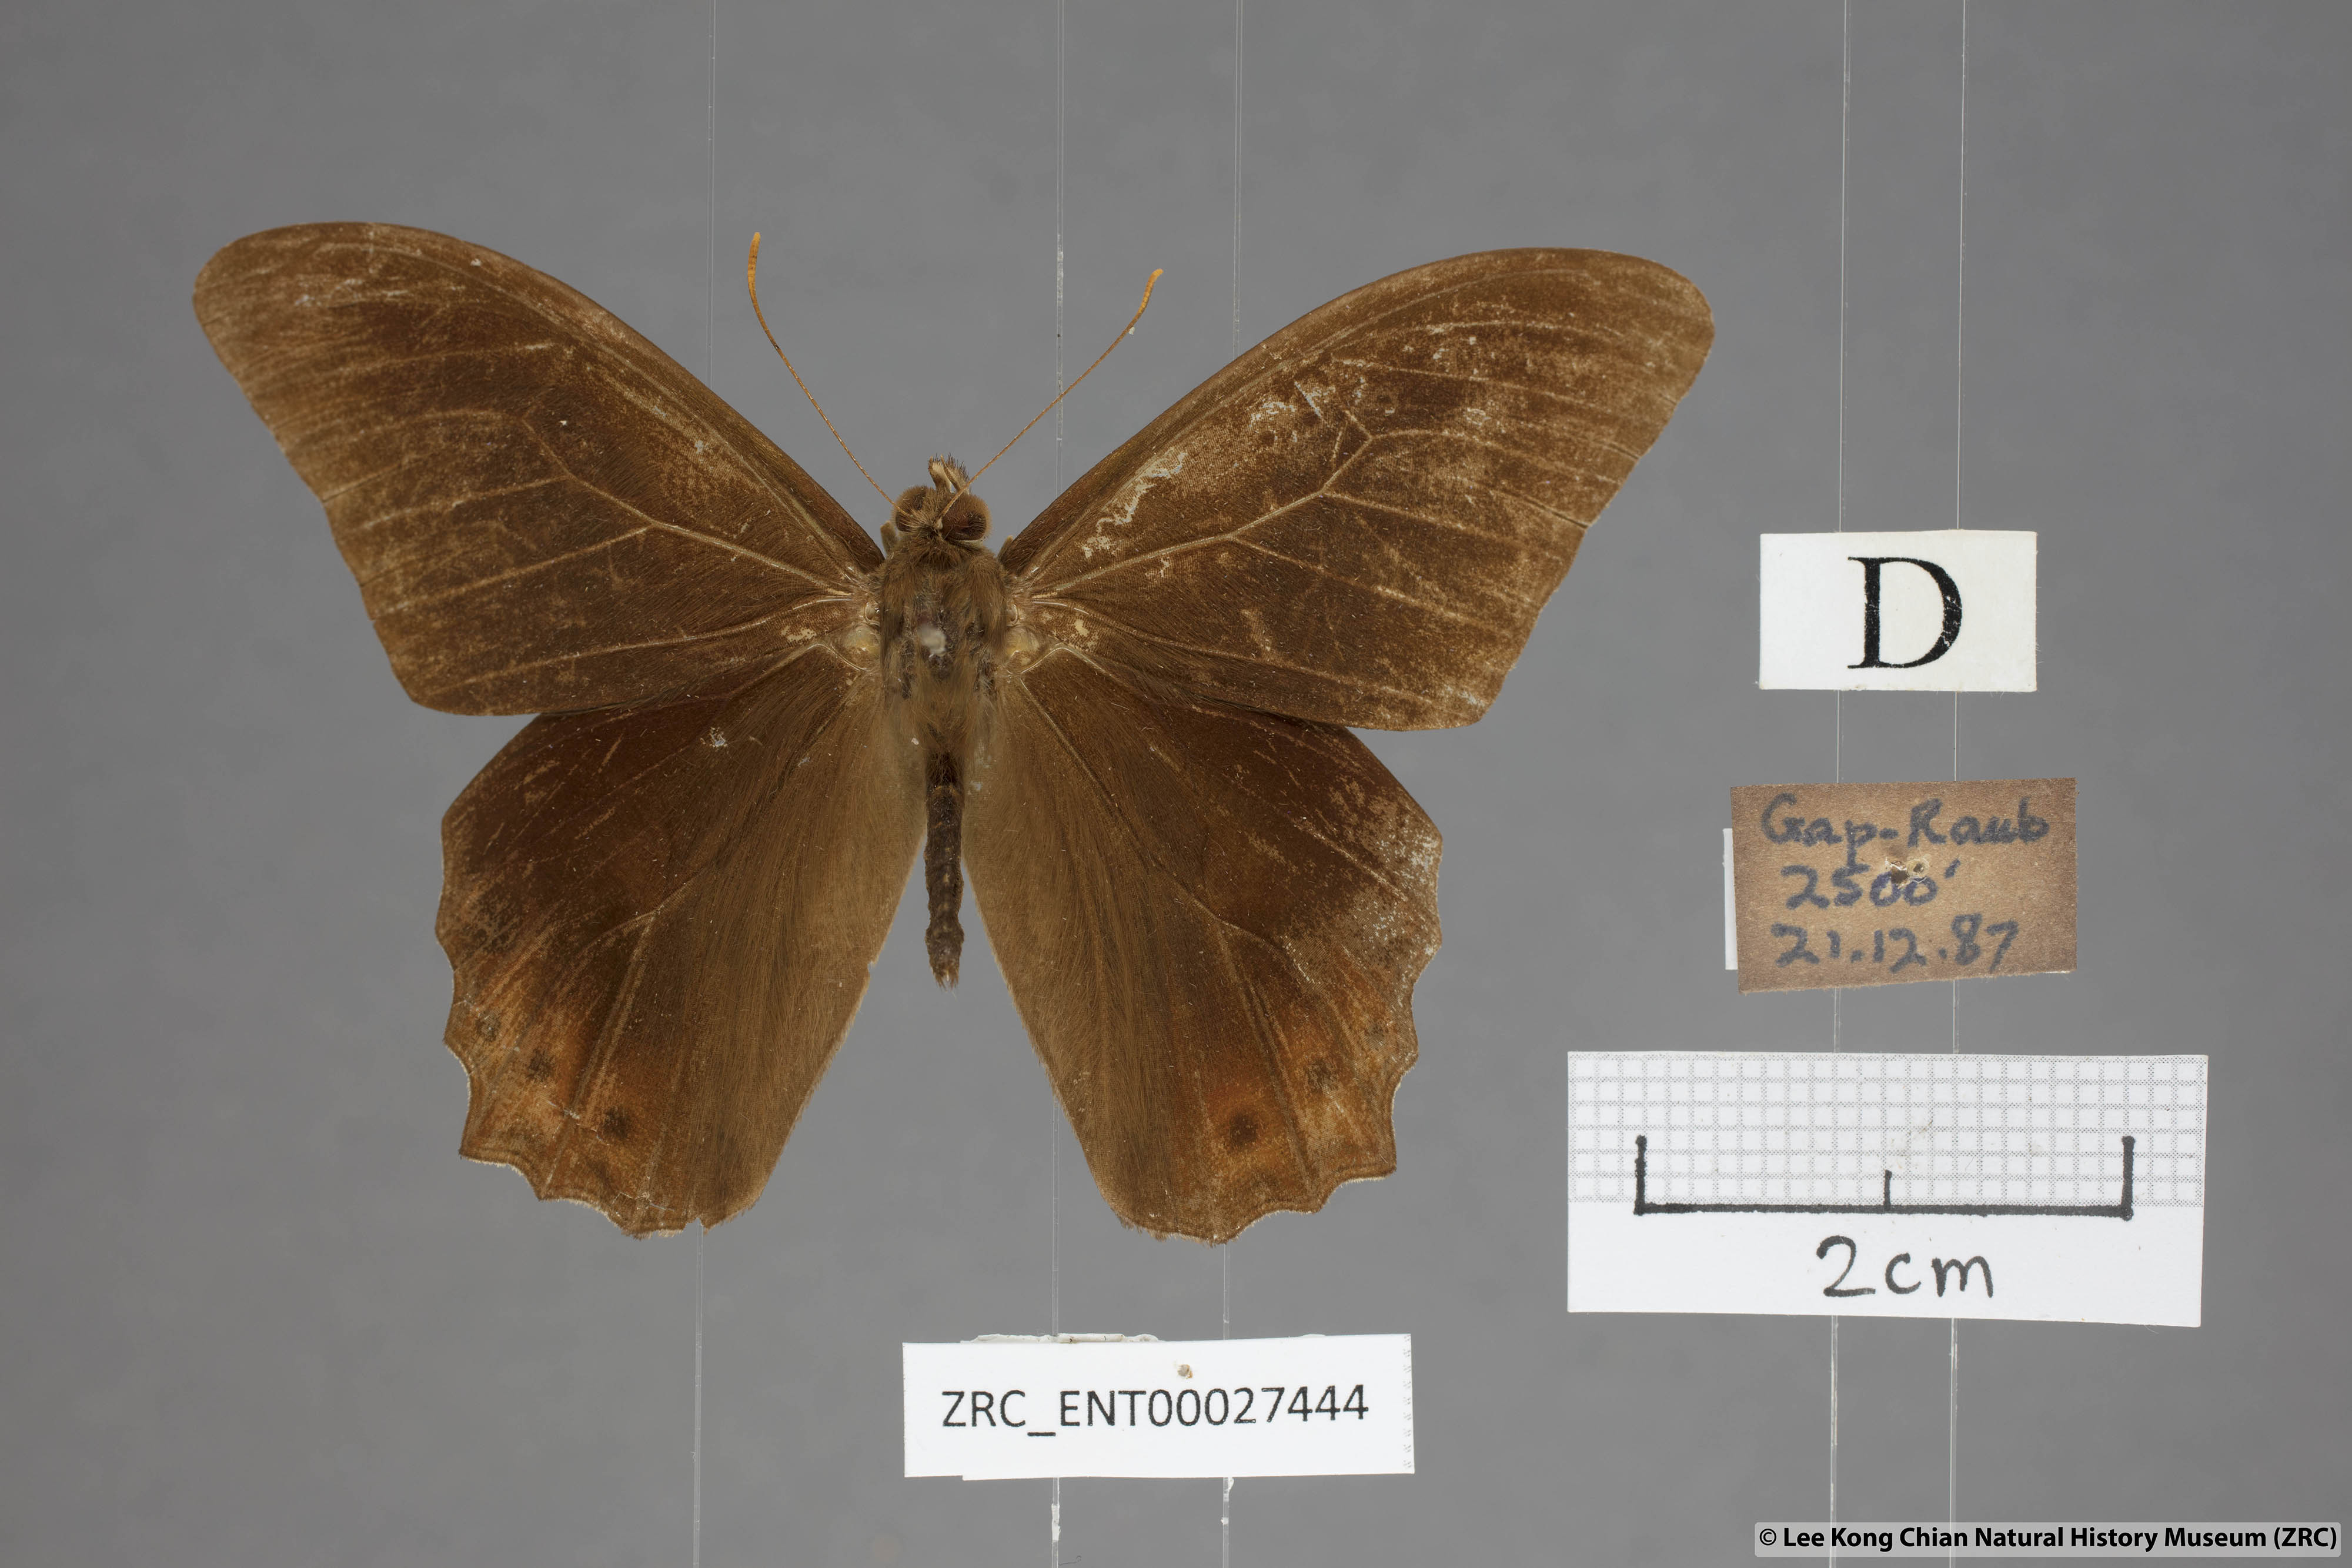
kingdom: Animalia
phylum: Arthropoda
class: Insecta
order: Lepidoptera
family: Nymphalidae
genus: Lethe
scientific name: Lethe mekara
